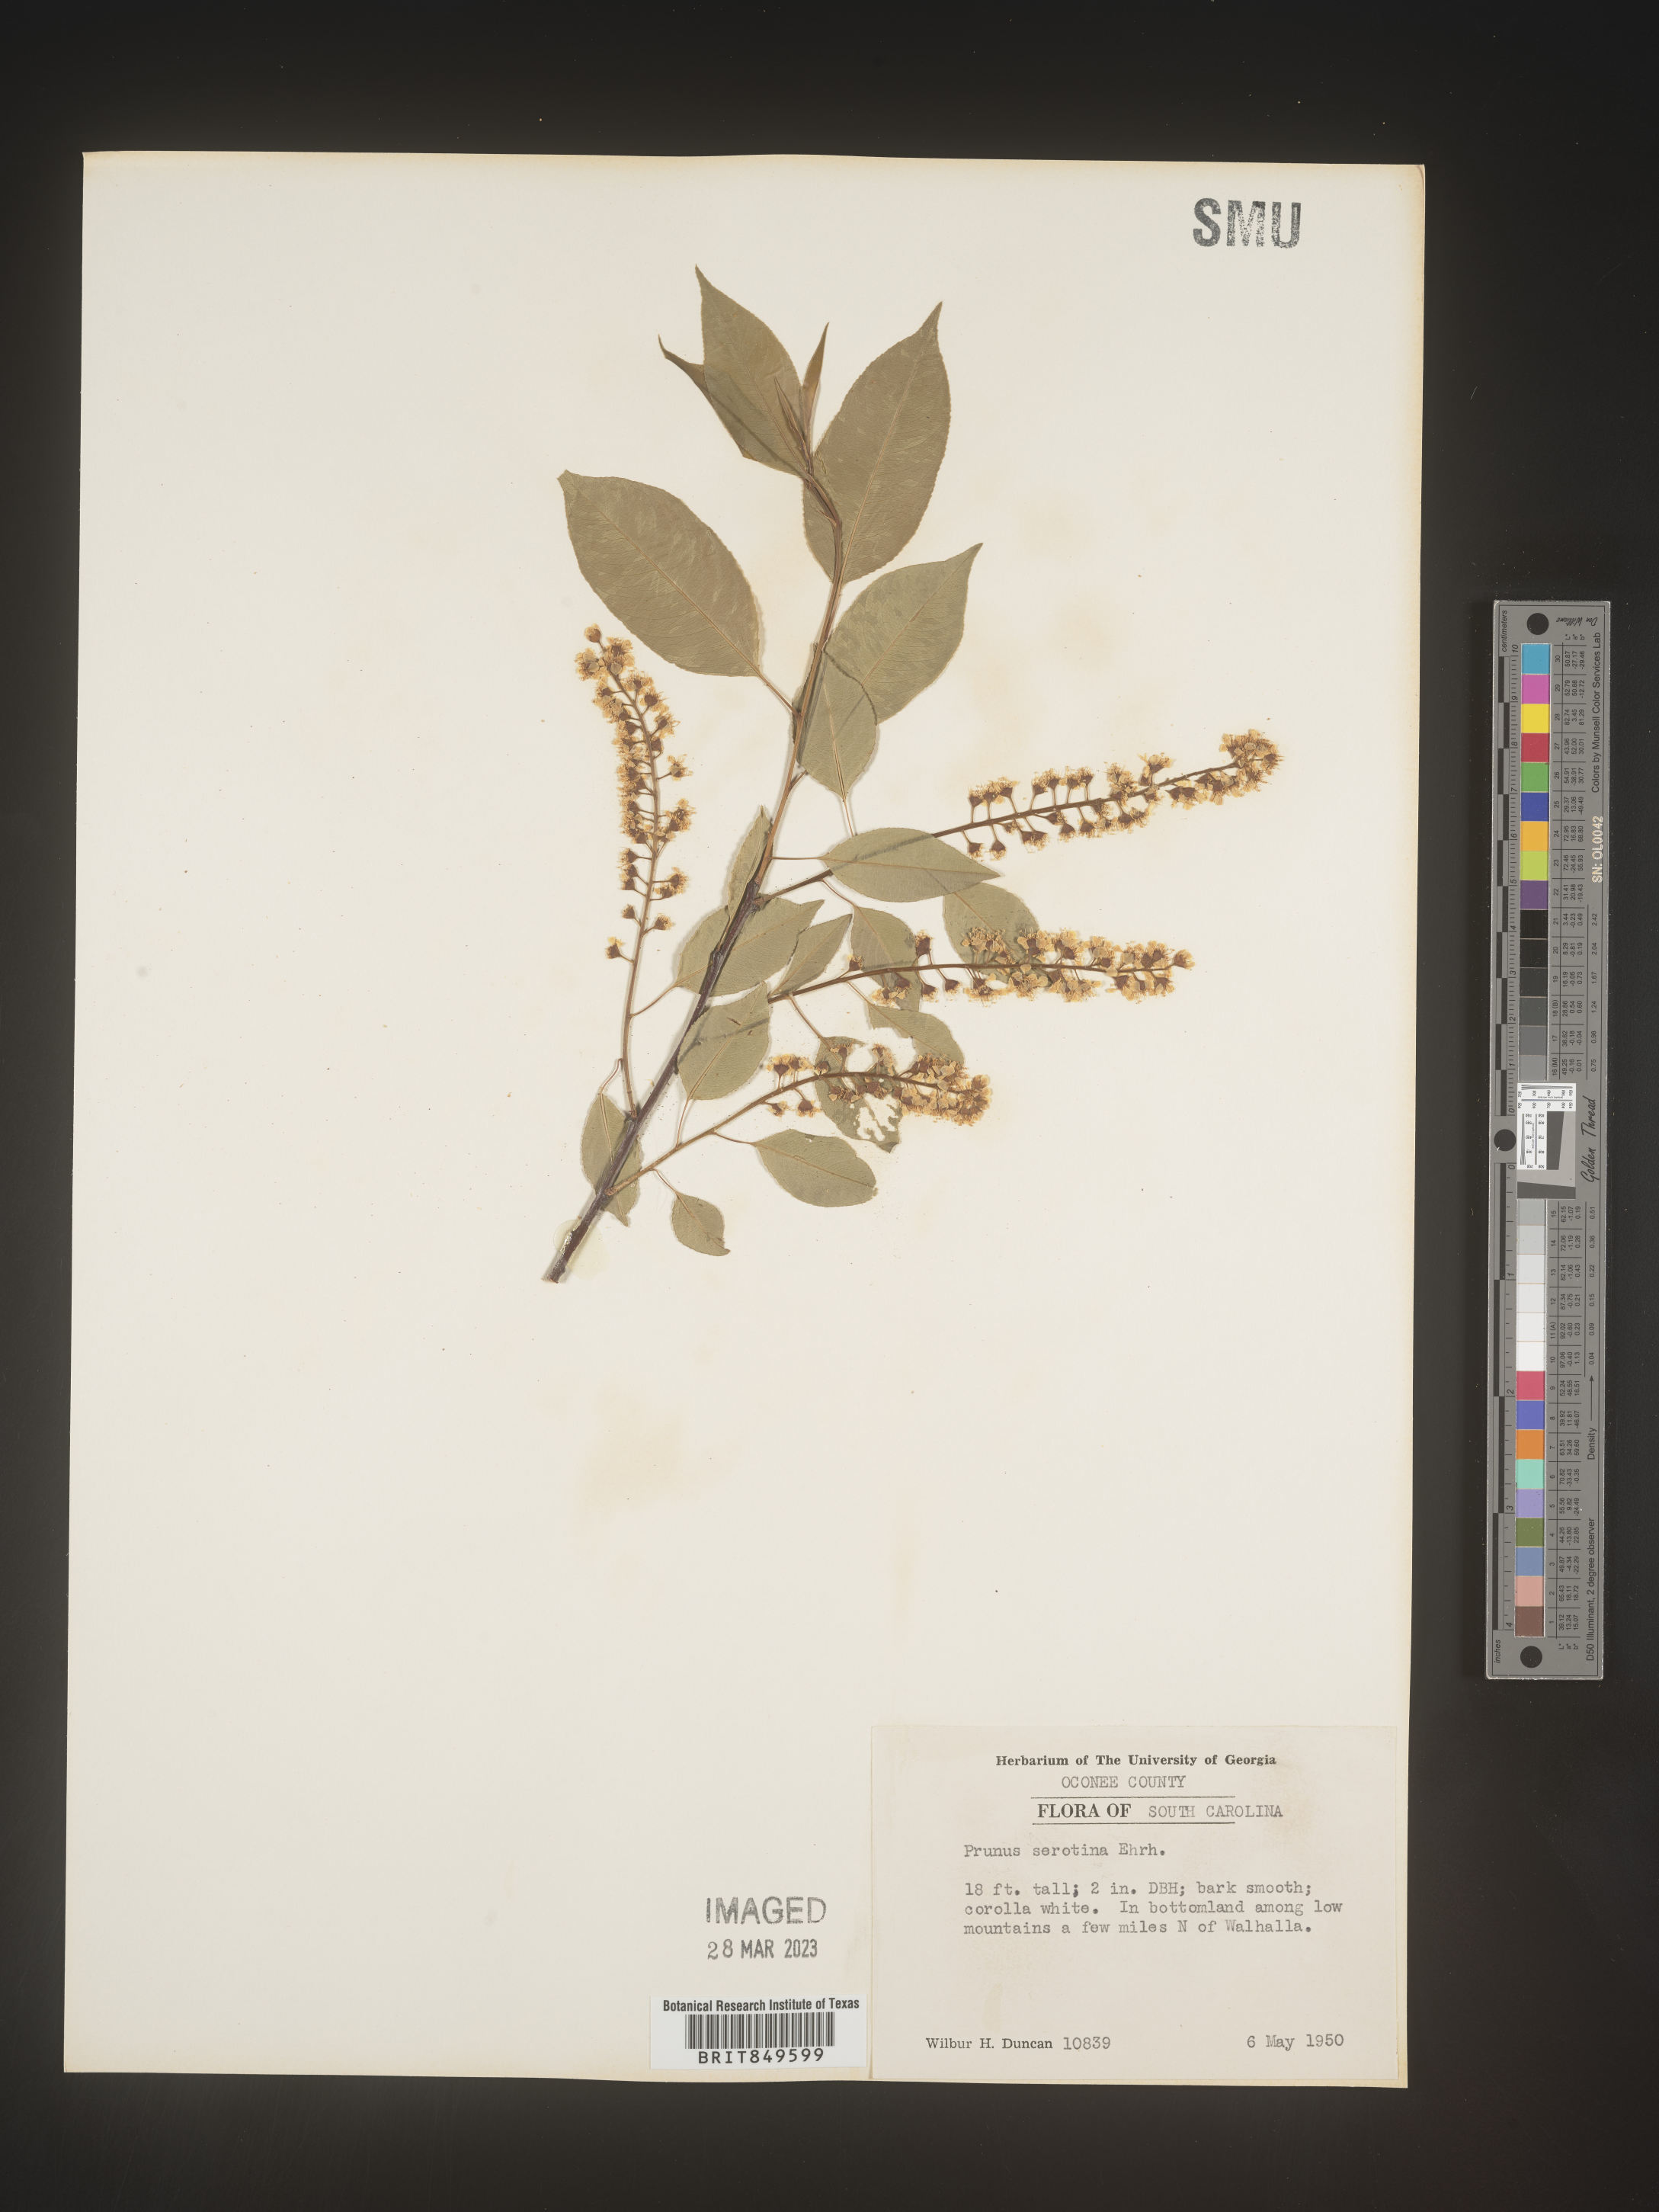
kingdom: Plantae
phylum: Tracheophyta
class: Magnoliopsida
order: Rosales
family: Rosaceae
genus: Prunus
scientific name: Prunus serotina
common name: Black cherry
